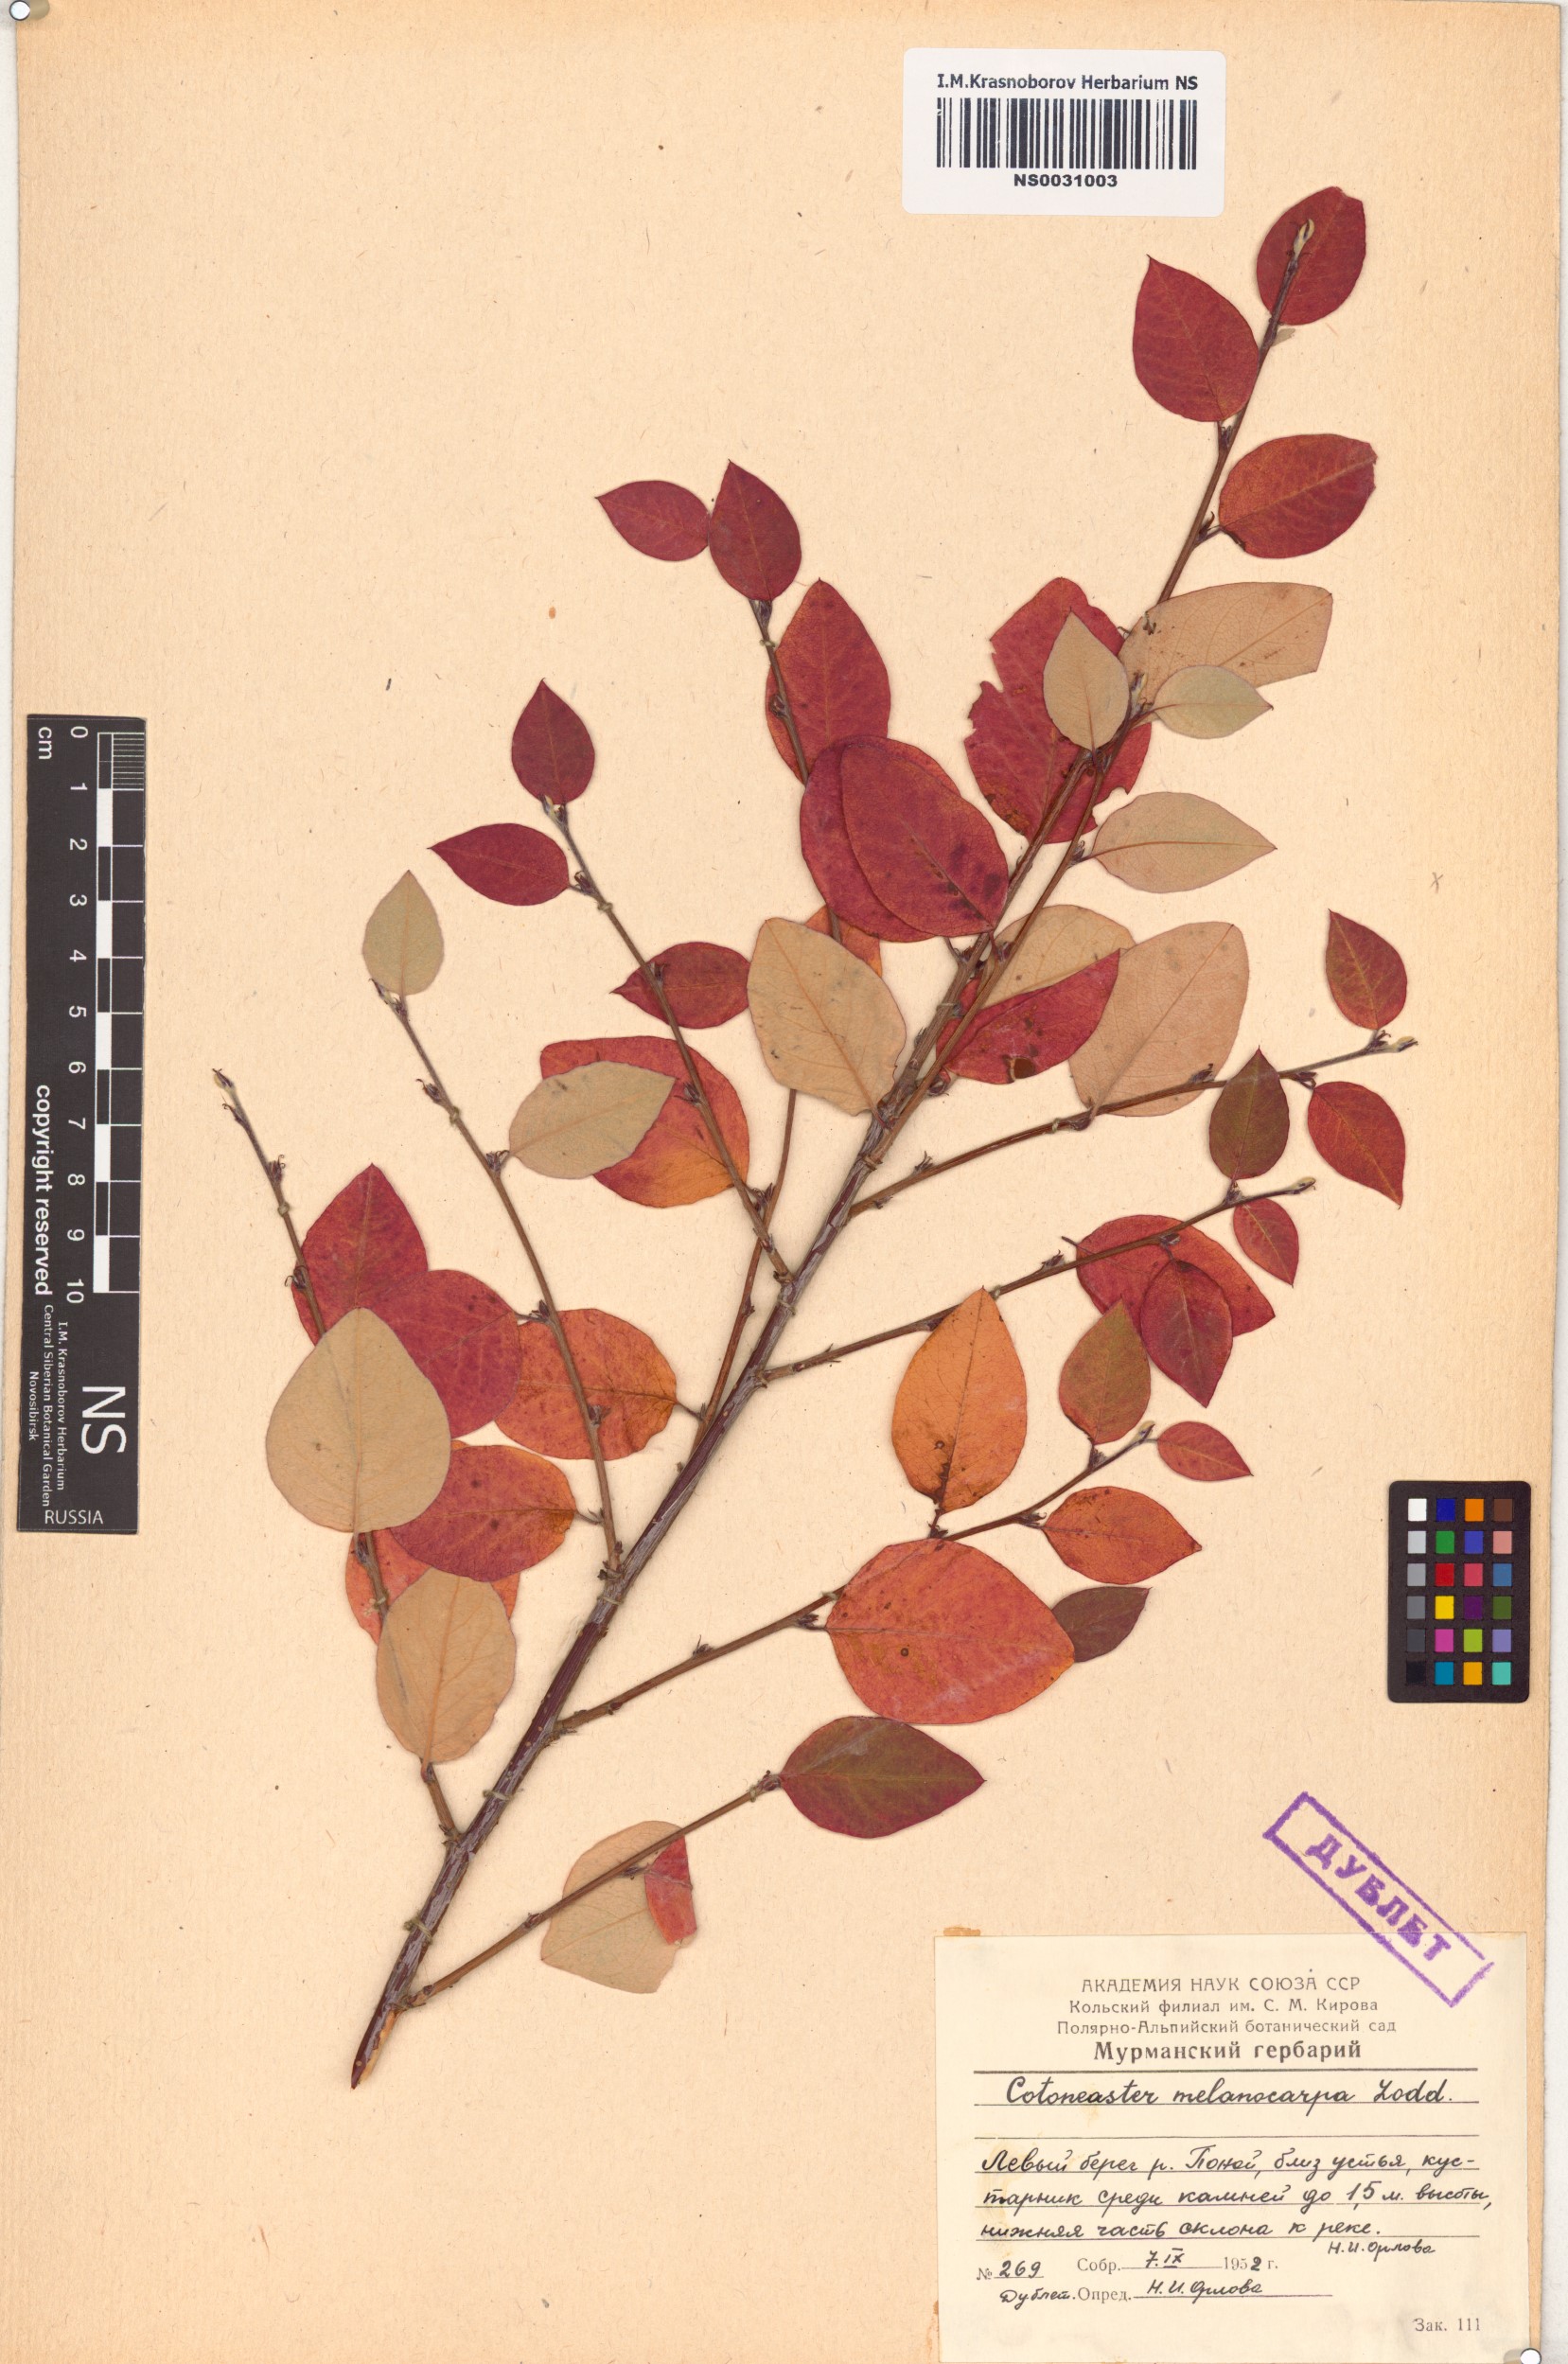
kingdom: Plantae
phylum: Tracheophyta
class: Magnoliopsida
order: Rosales
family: Rosaceae
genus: Cotoneaster
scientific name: Cotoneaster melanocarpus
